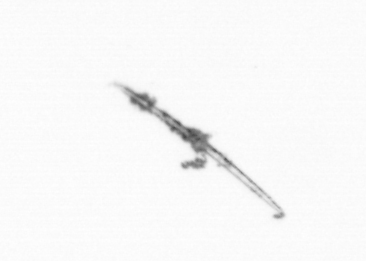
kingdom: Chromista
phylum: Ochrophyta
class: Bacillariophyceae
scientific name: Bacillariophyceae
